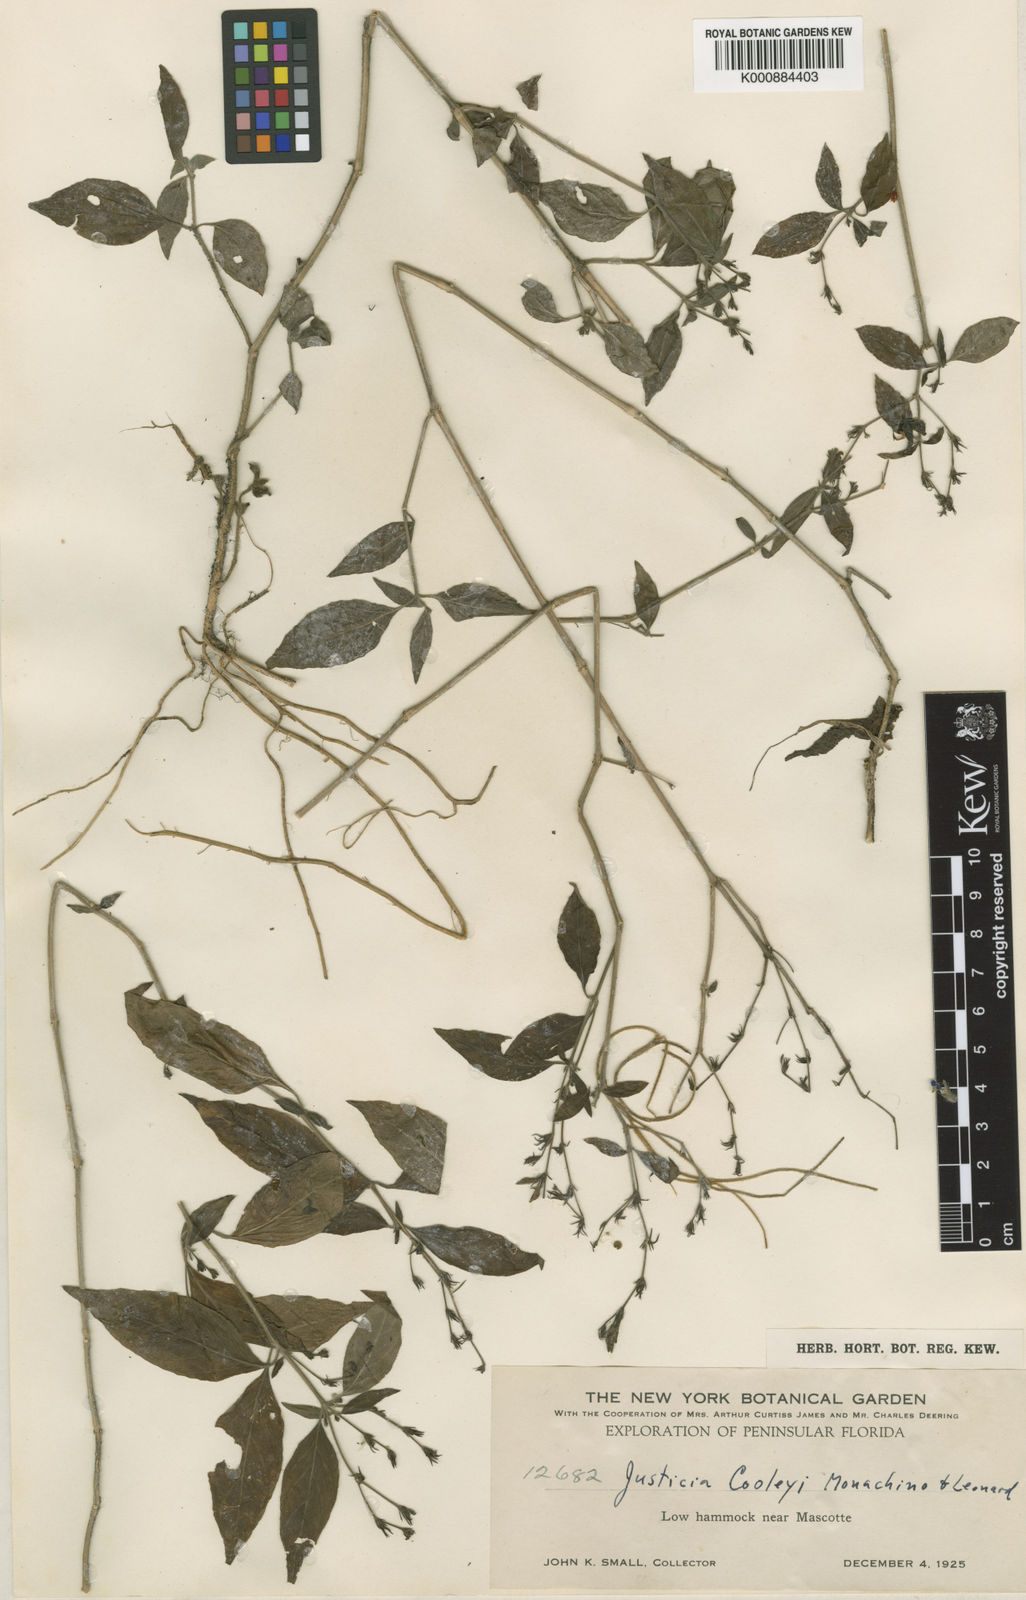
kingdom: Plantae
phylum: Tracheophyta
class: Magnoliopsida
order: Lamiales
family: Acanthaceae
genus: Justicia
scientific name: Justicia pringlei
